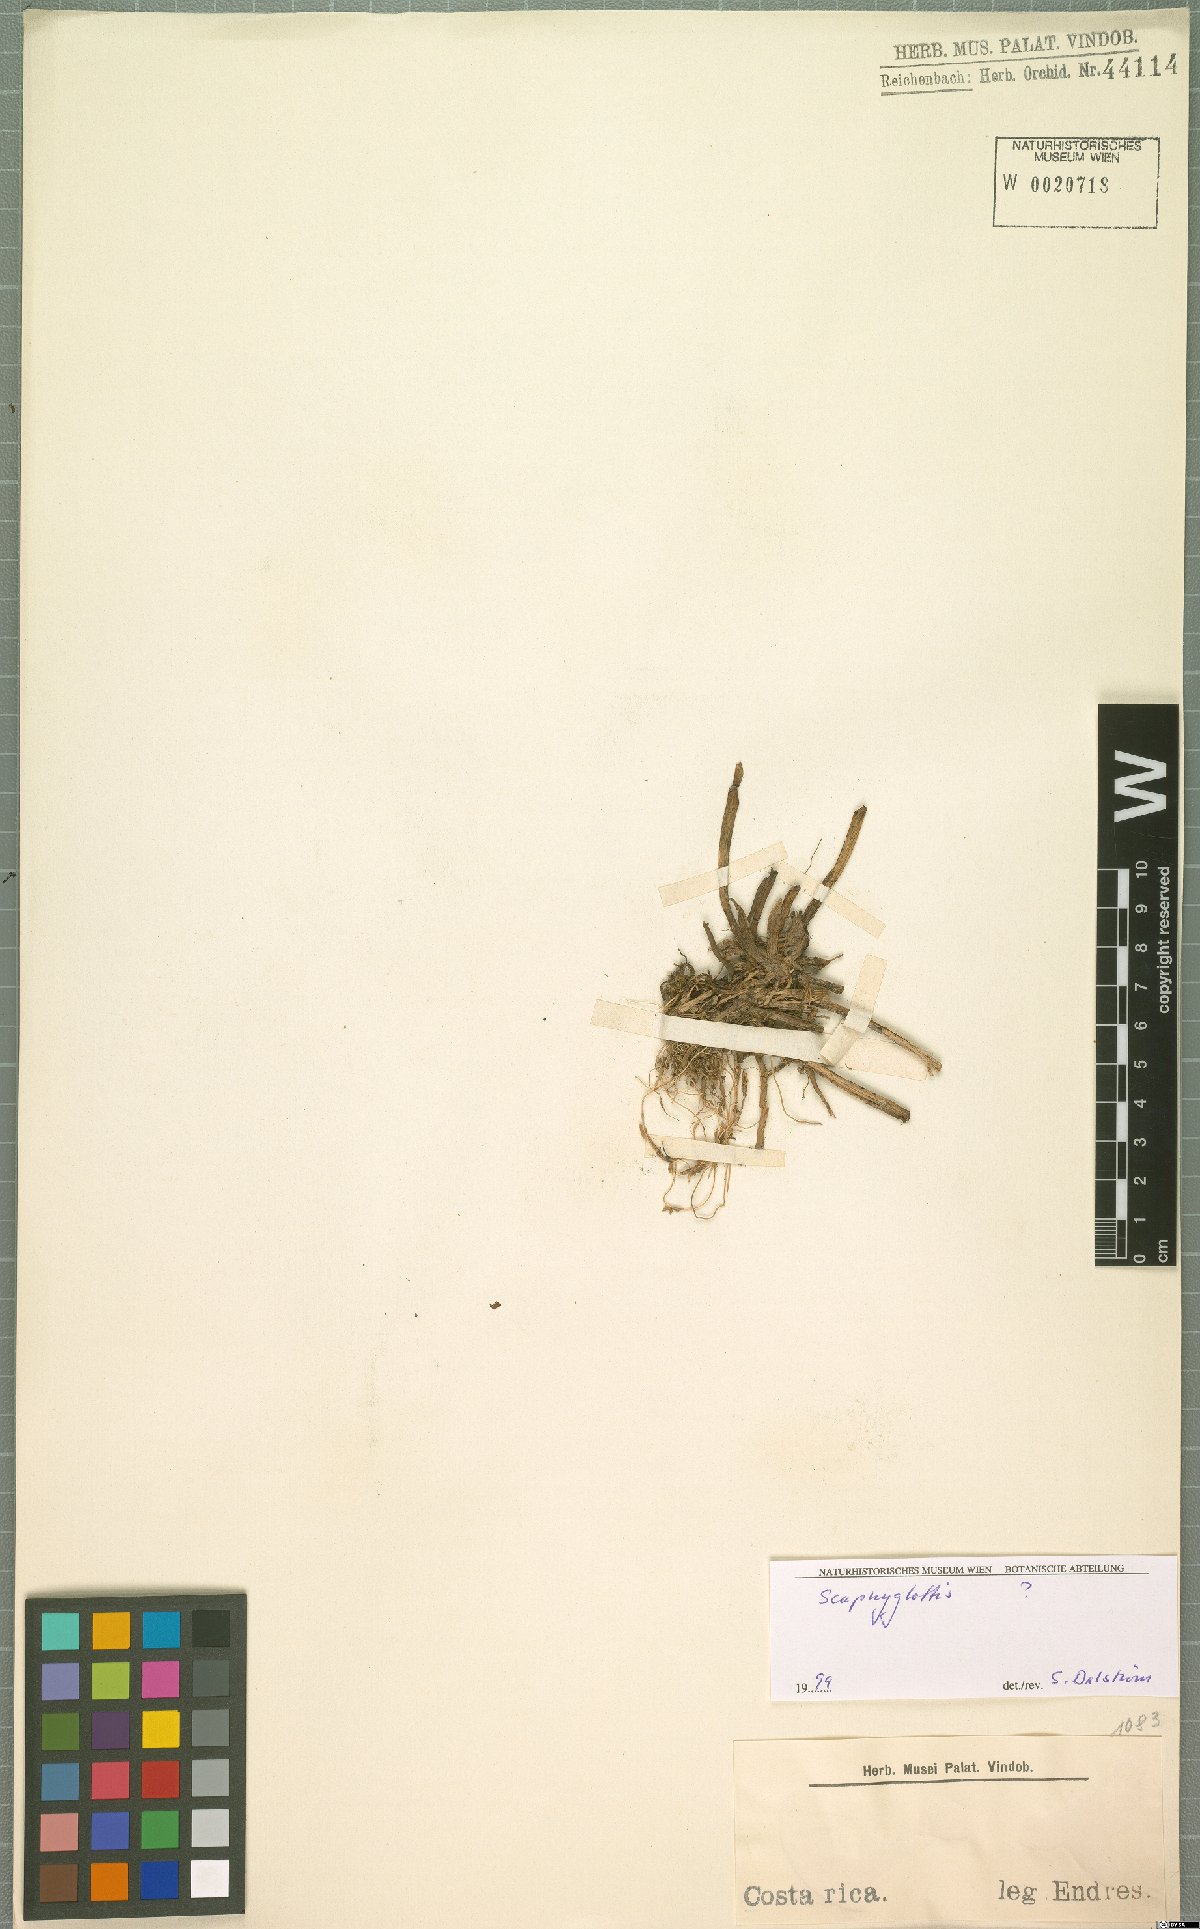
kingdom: Plantae
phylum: Tracheophyta
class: Liliopsida
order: Asparagales
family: Orchidaceae
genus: Scaphyglottis
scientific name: Scaphyglottis
